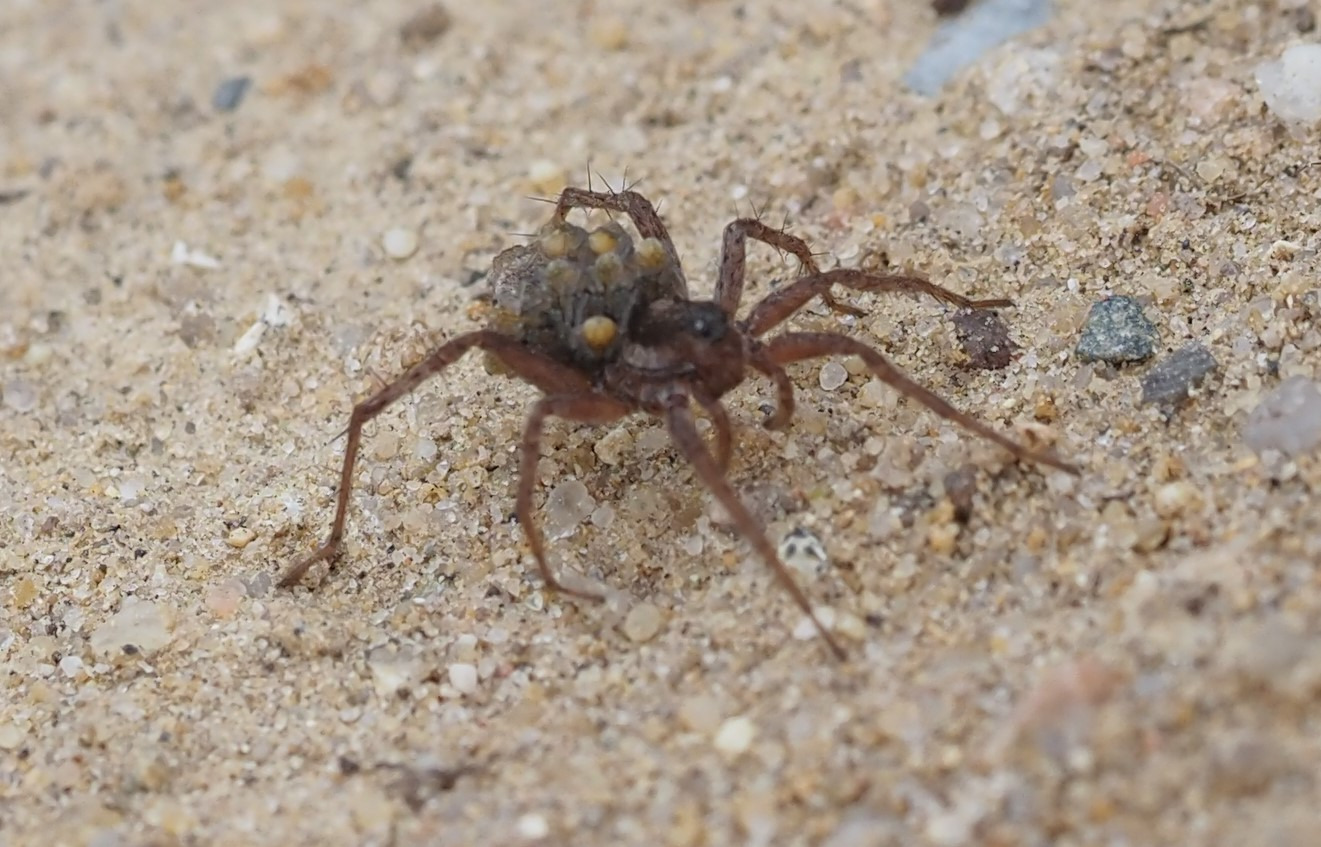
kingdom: Animalia
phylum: Arthropoda
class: Arachnida
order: Araneae
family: Lycosidae
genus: Pardosa
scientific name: Pardosa
